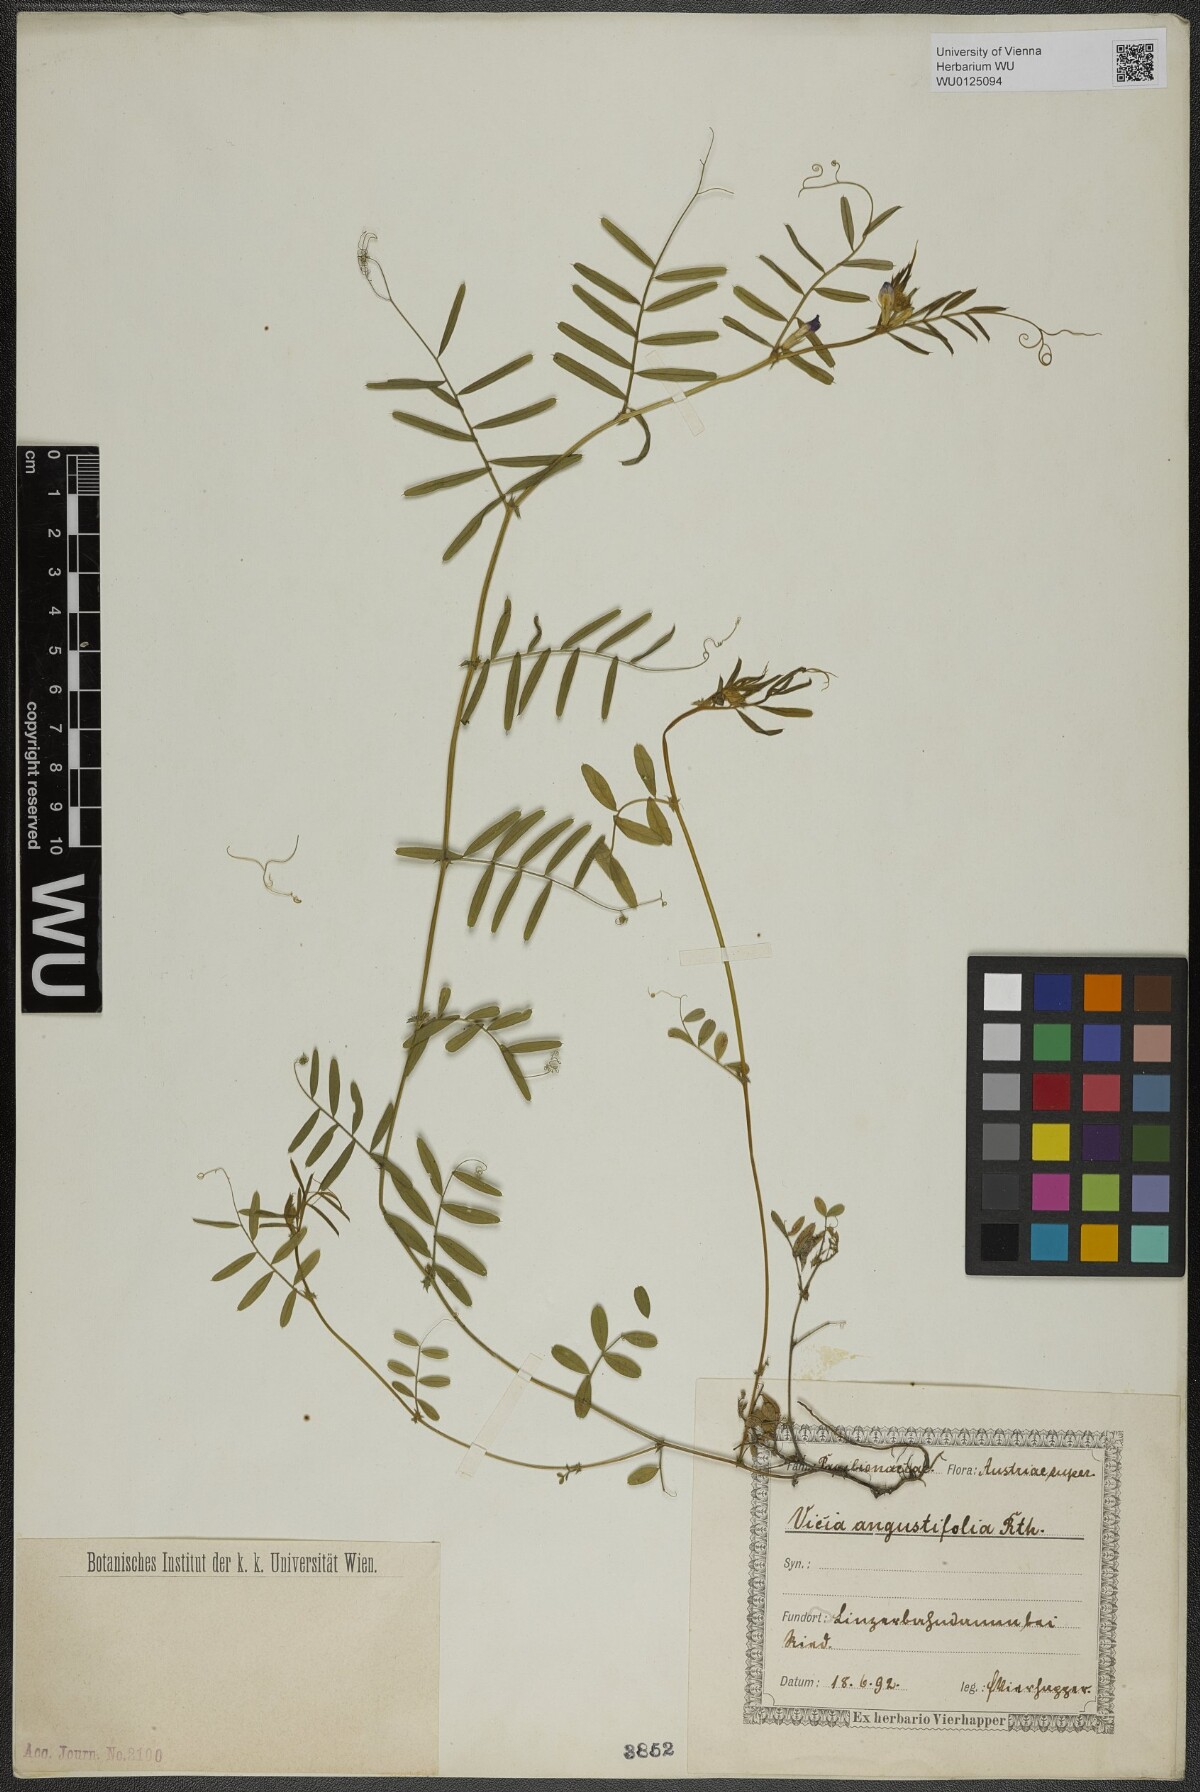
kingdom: Plantae
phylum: Tracheophyta
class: Magnoliopsida
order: Fabales
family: Fabaceae
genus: Vicia
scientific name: Vicia sativa
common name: Garden vetch
